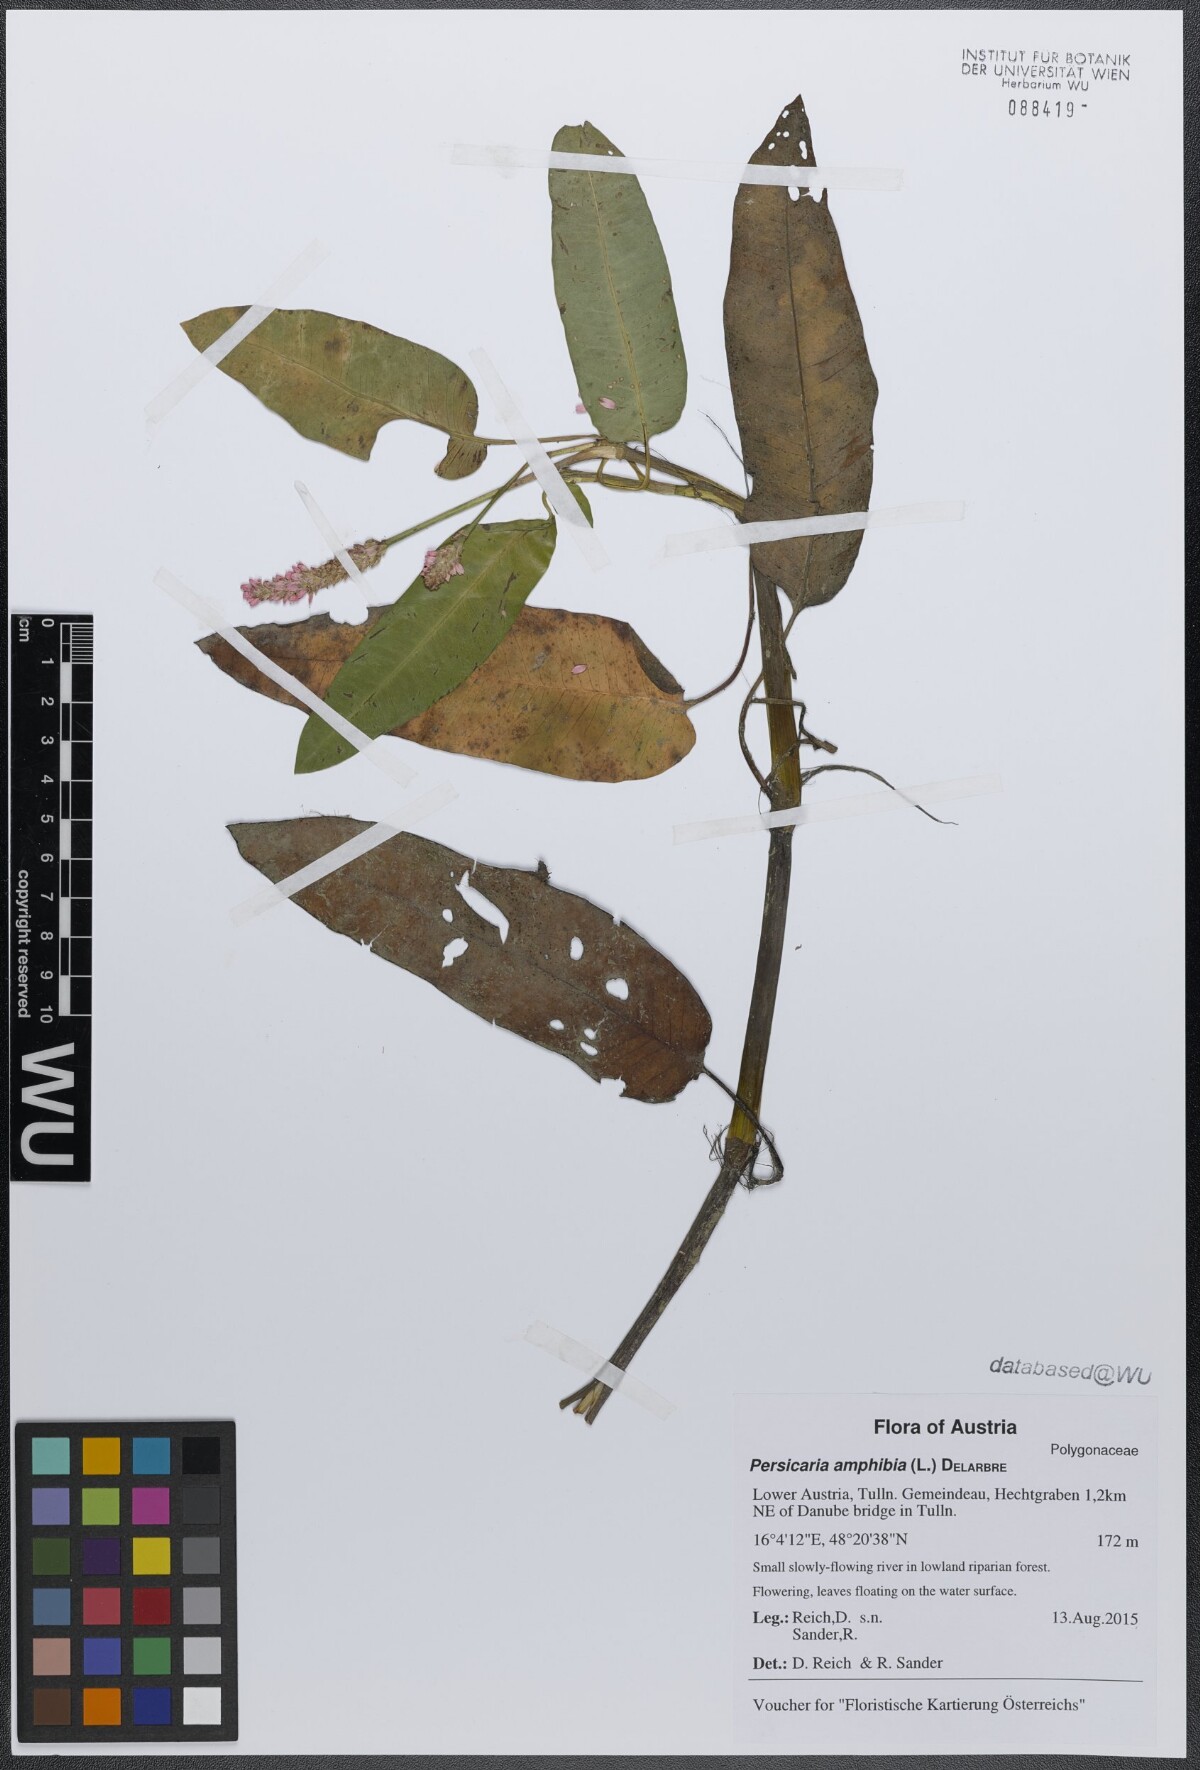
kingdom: Plantae
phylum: Tracheophyta
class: Magnoliopsida
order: Caryophyllales
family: Polygonaceae
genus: Persicaria
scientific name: Persicaria amphibia
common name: Amphibious bistort
